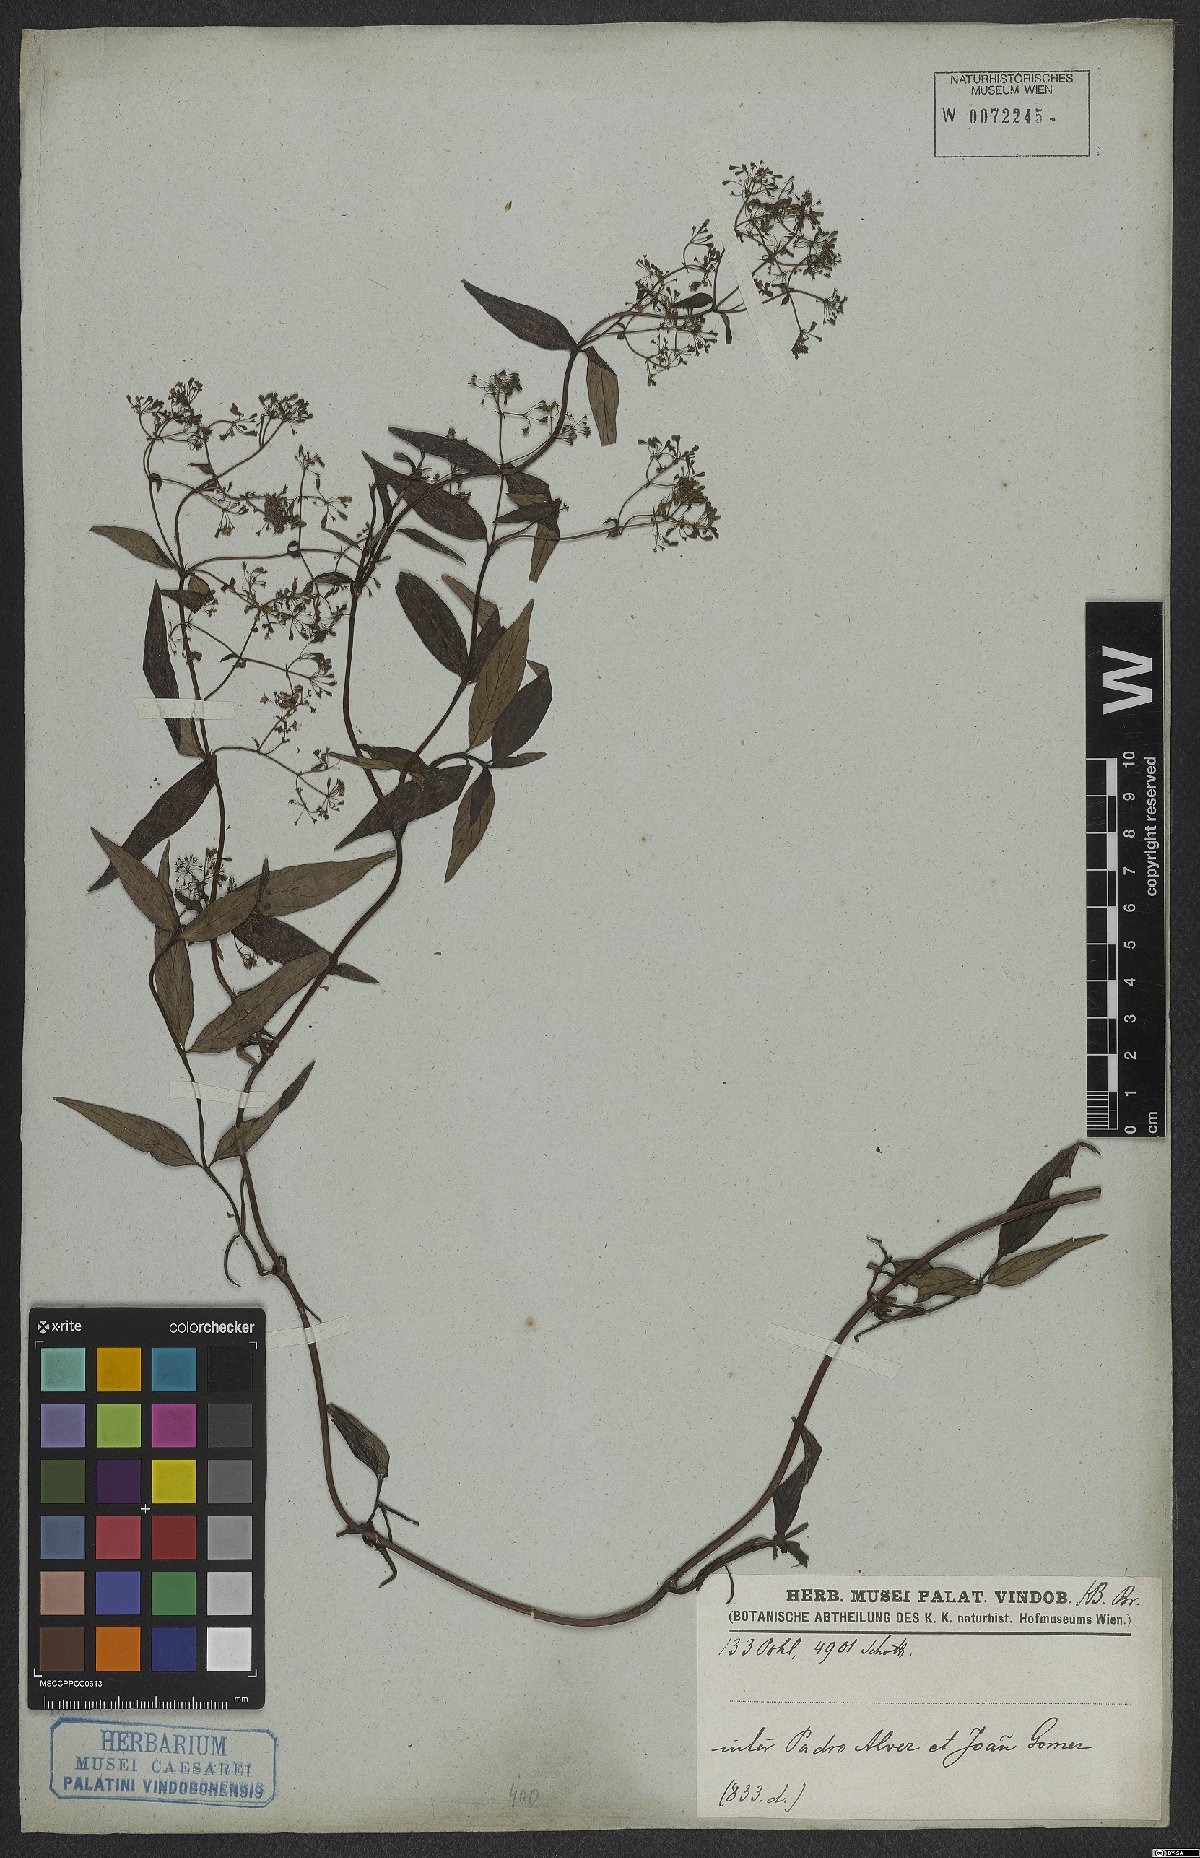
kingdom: Plantae
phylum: Tracheophyta
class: Magnoliopsida
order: Gentianales
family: Rubiaceae
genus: Emmeorhiza
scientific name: Emmeorhiza
